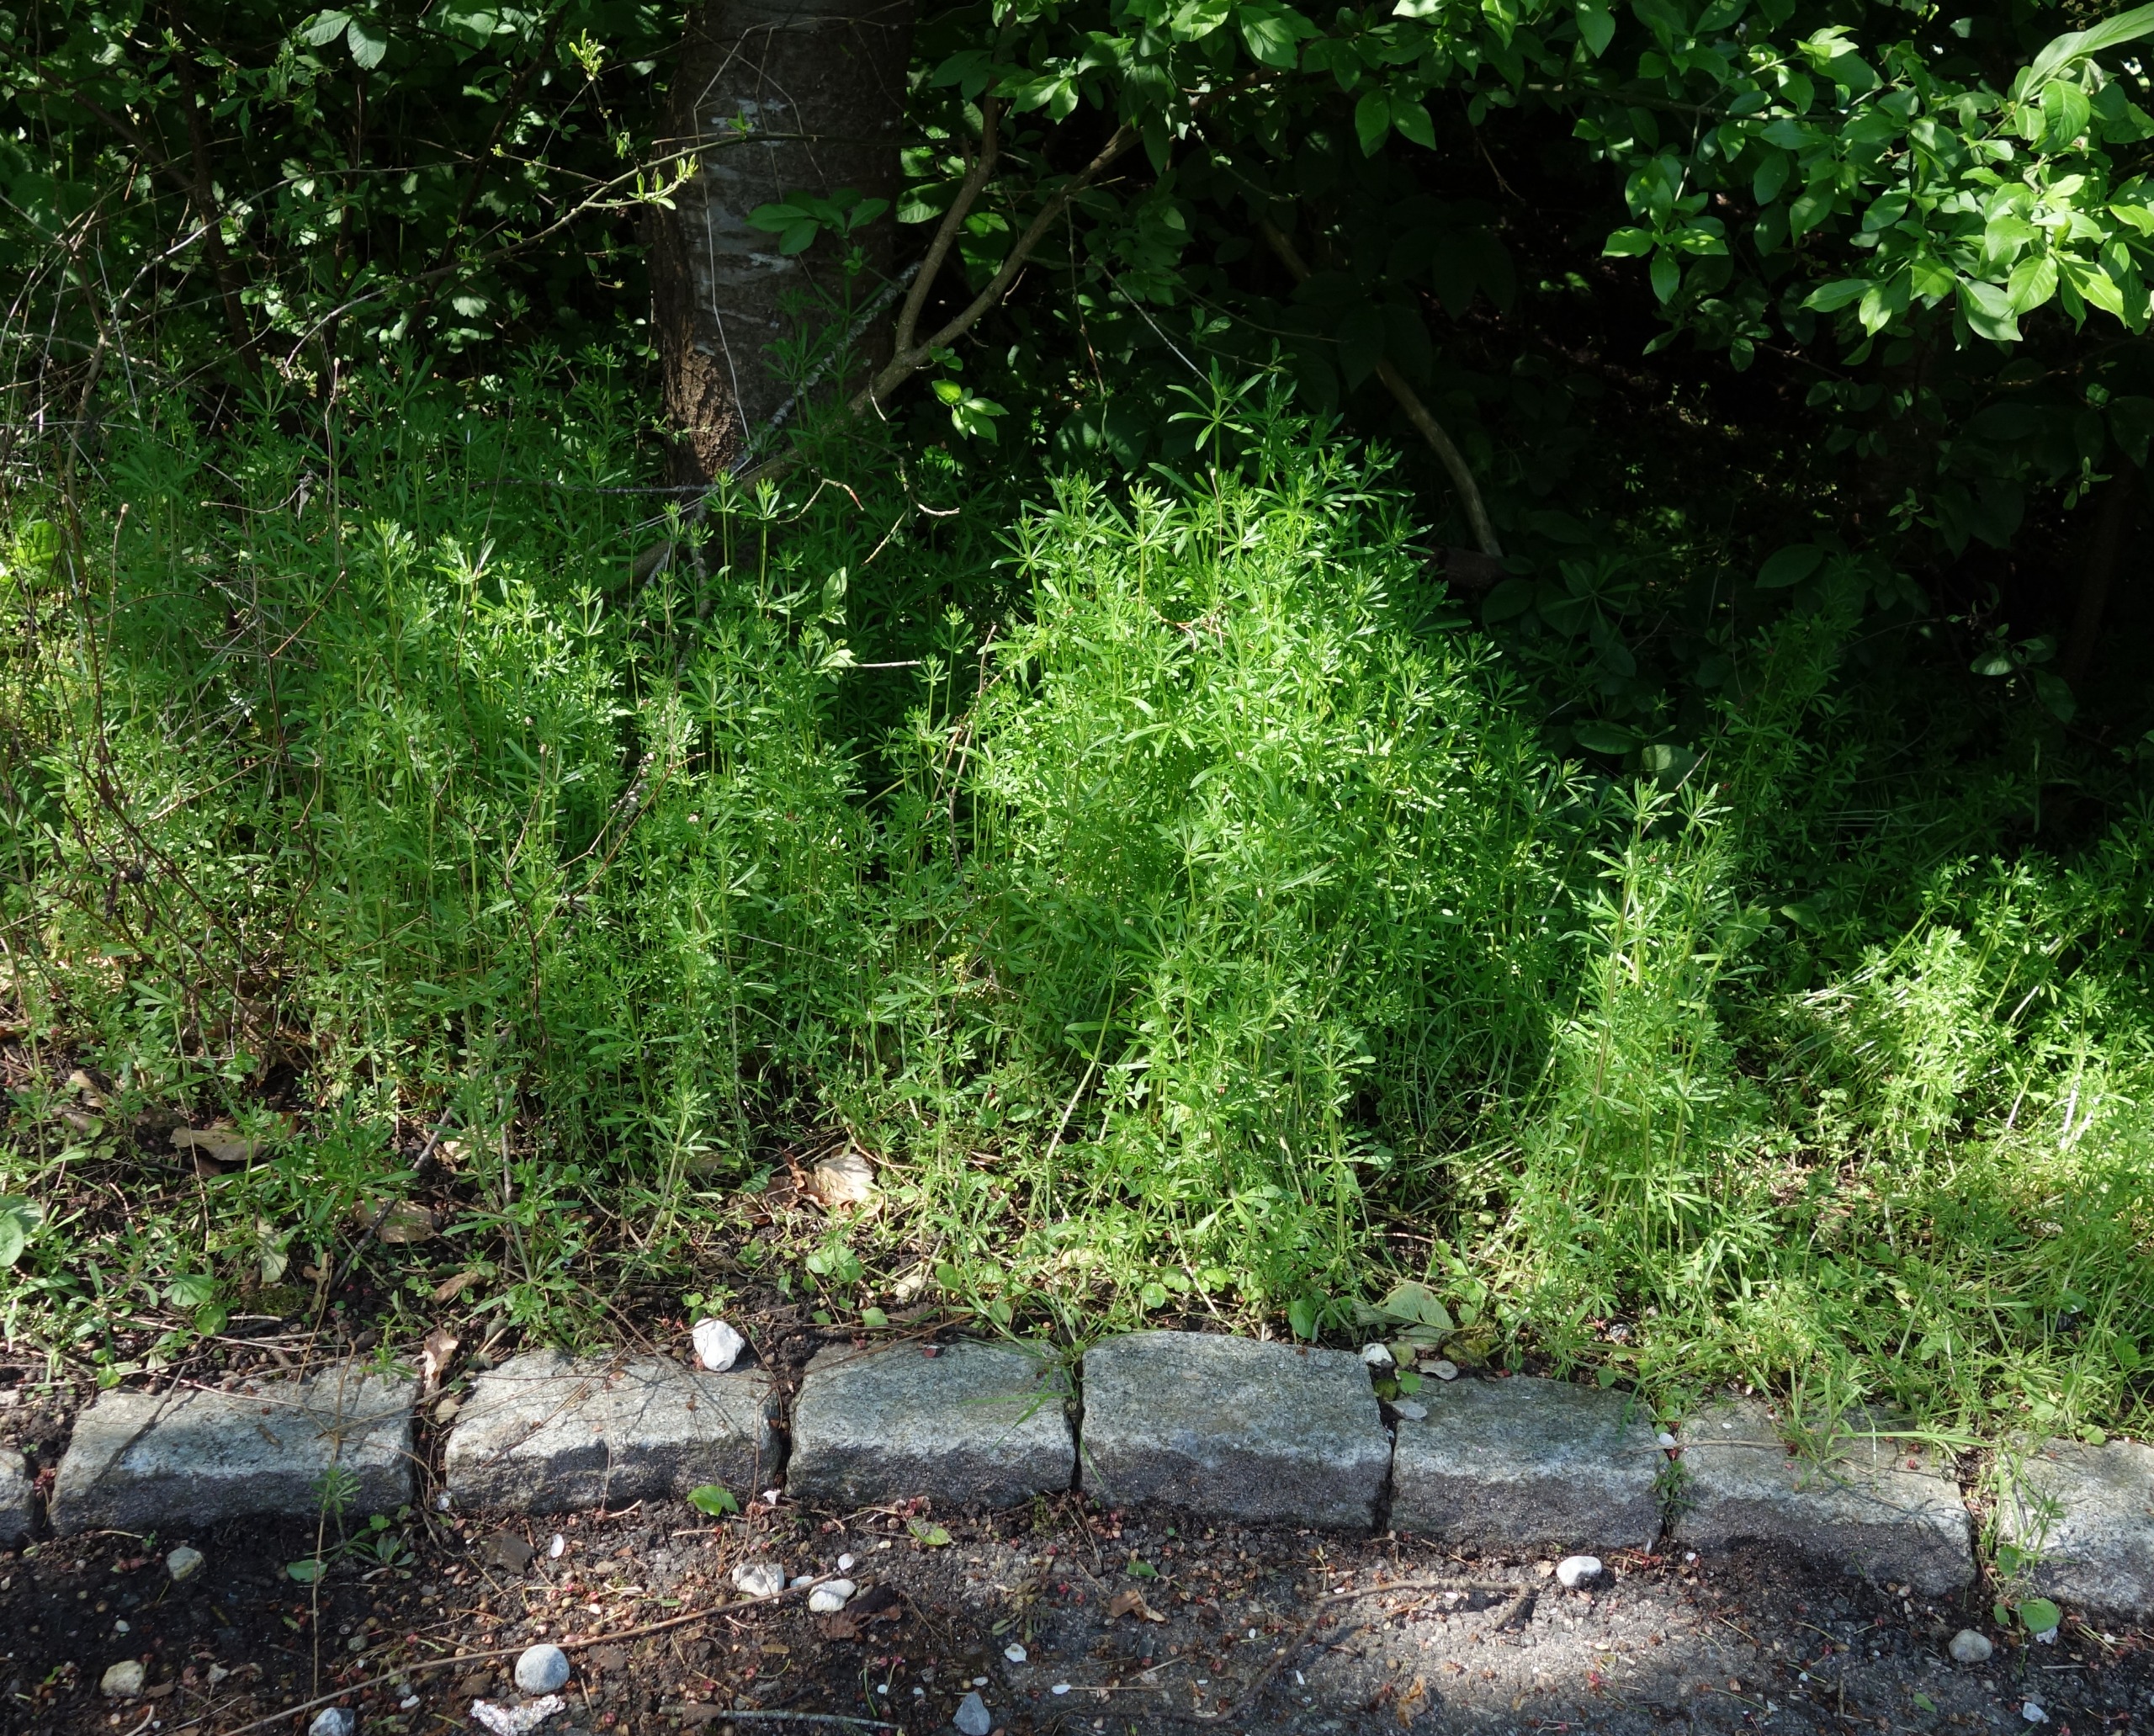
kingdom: Plantae
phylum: Tracheophyta
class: Magnoliopsida
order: Gentianales
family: Rubiaceae
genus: Galium
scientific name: Galium aparine
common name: Burre-snerre
